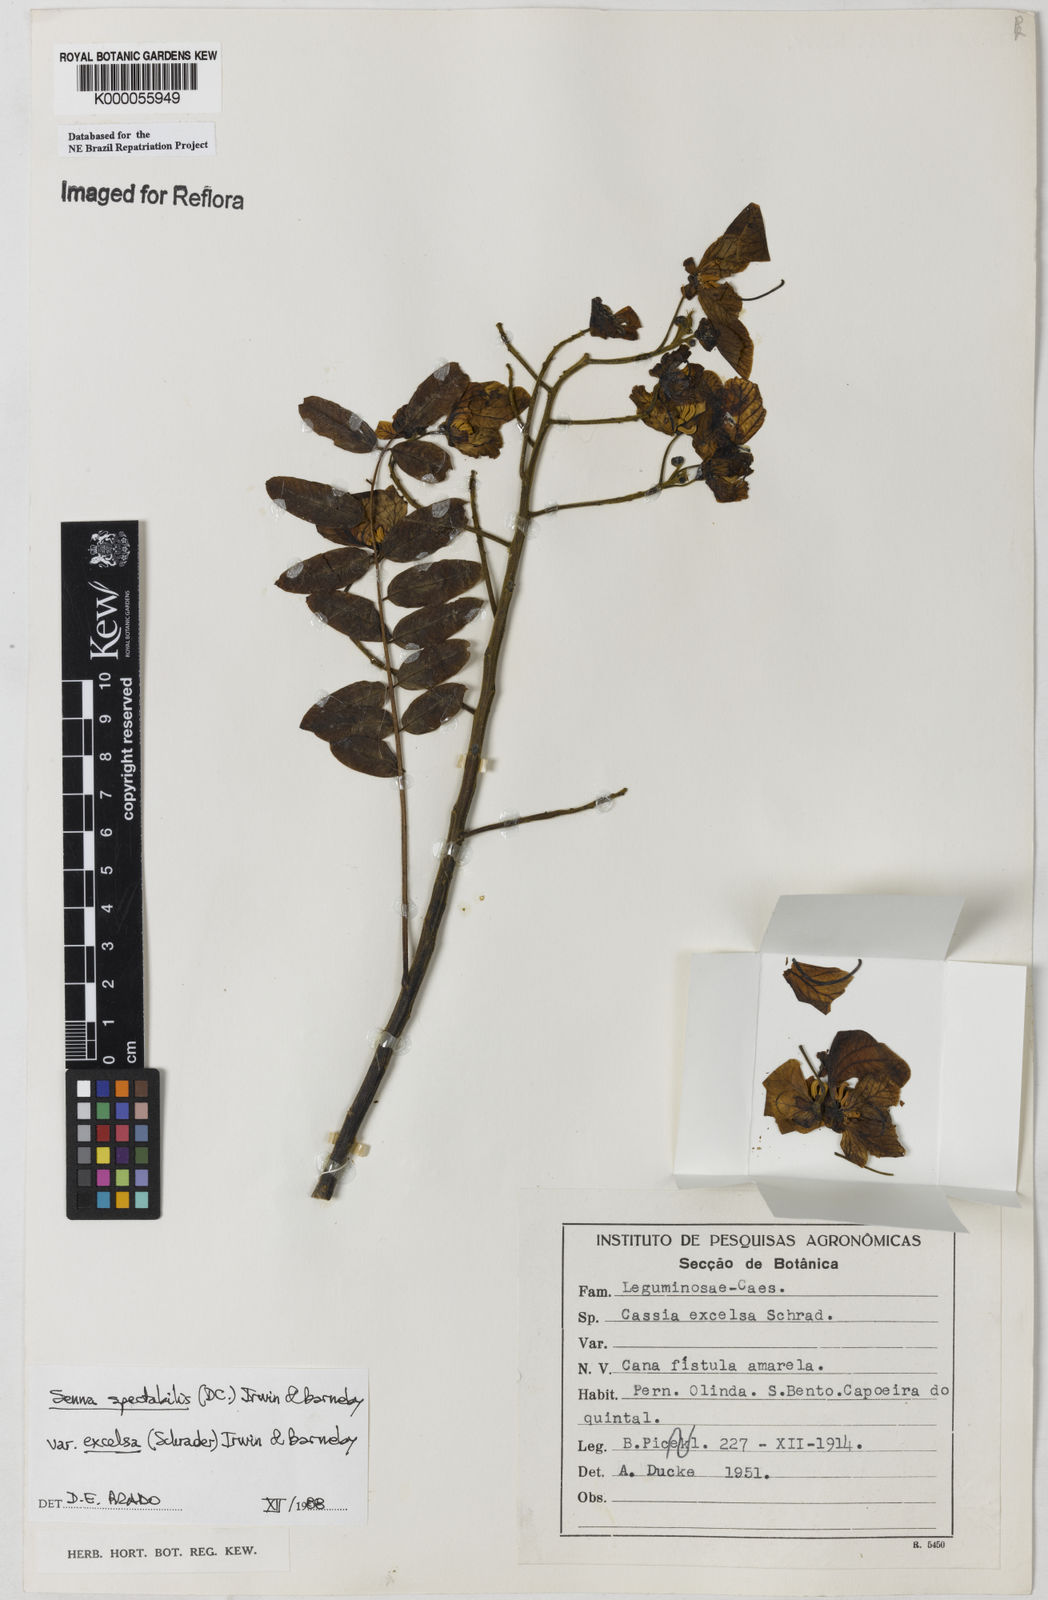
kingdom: Plantae
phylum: Tracheophyta
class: Magnoliopsida
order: Fabales
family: Fabaceae
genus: Senna
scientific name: Senna spectabilis
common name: Casia amarilla
